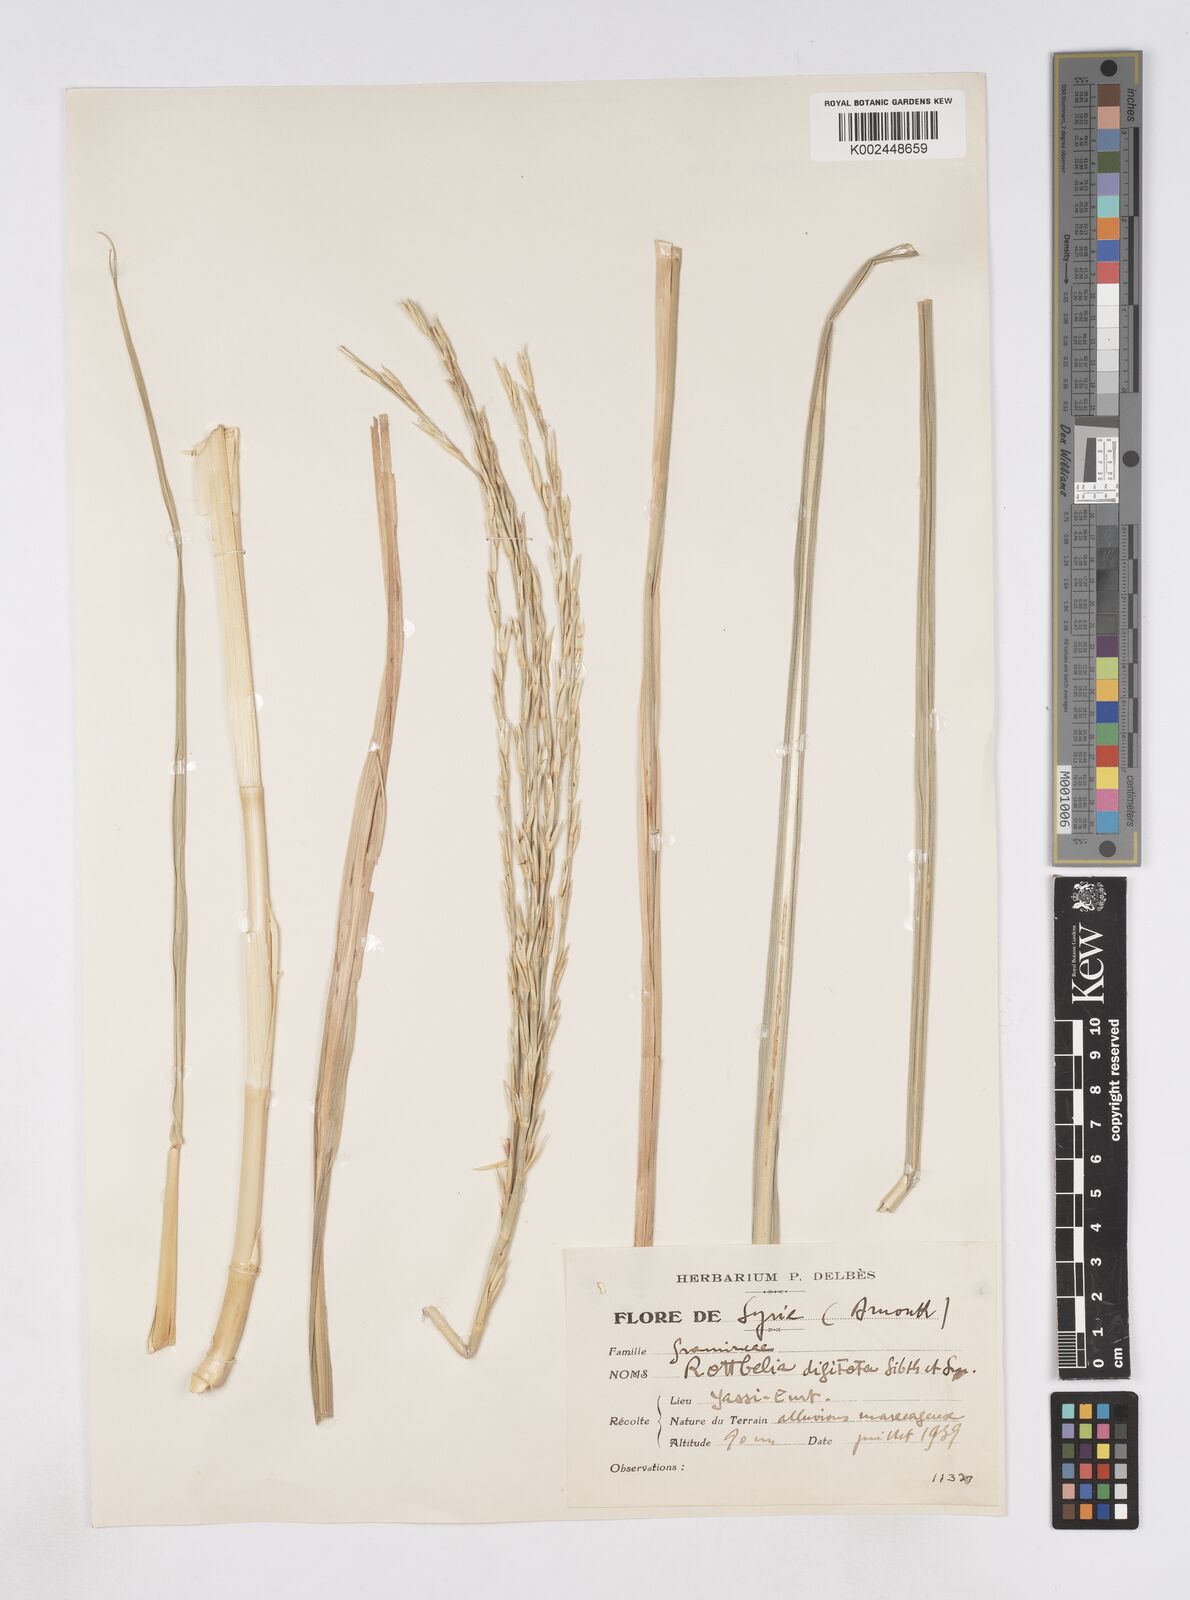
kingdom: Plantae
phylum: Tracheophyta
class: Liliopsida
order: Poales
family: Poaceae
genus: Phacelurus
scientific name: Phacelurus digitatus
